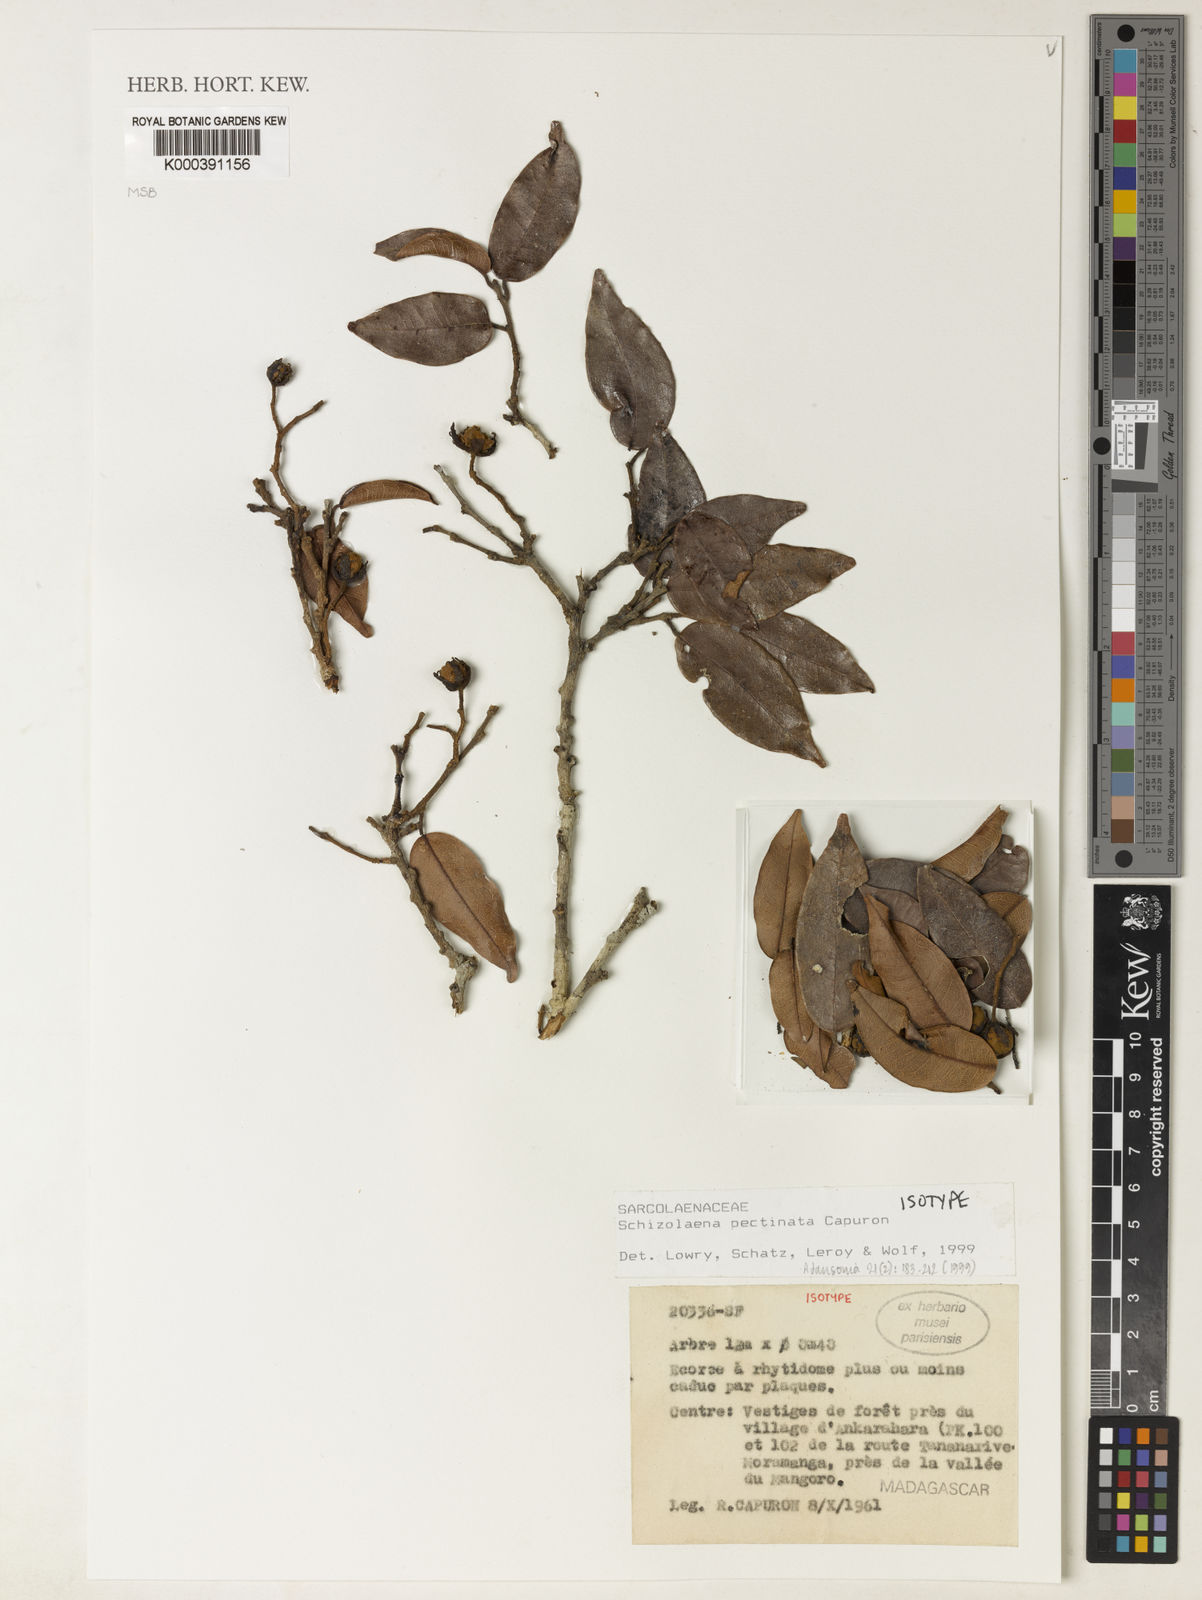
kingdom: Plantae
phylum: Tracheophyta
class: Magnoliopsida
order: Malvales
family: Sarcolaenaceae
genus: Schizolaena
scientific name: Schizolaena pectinata
